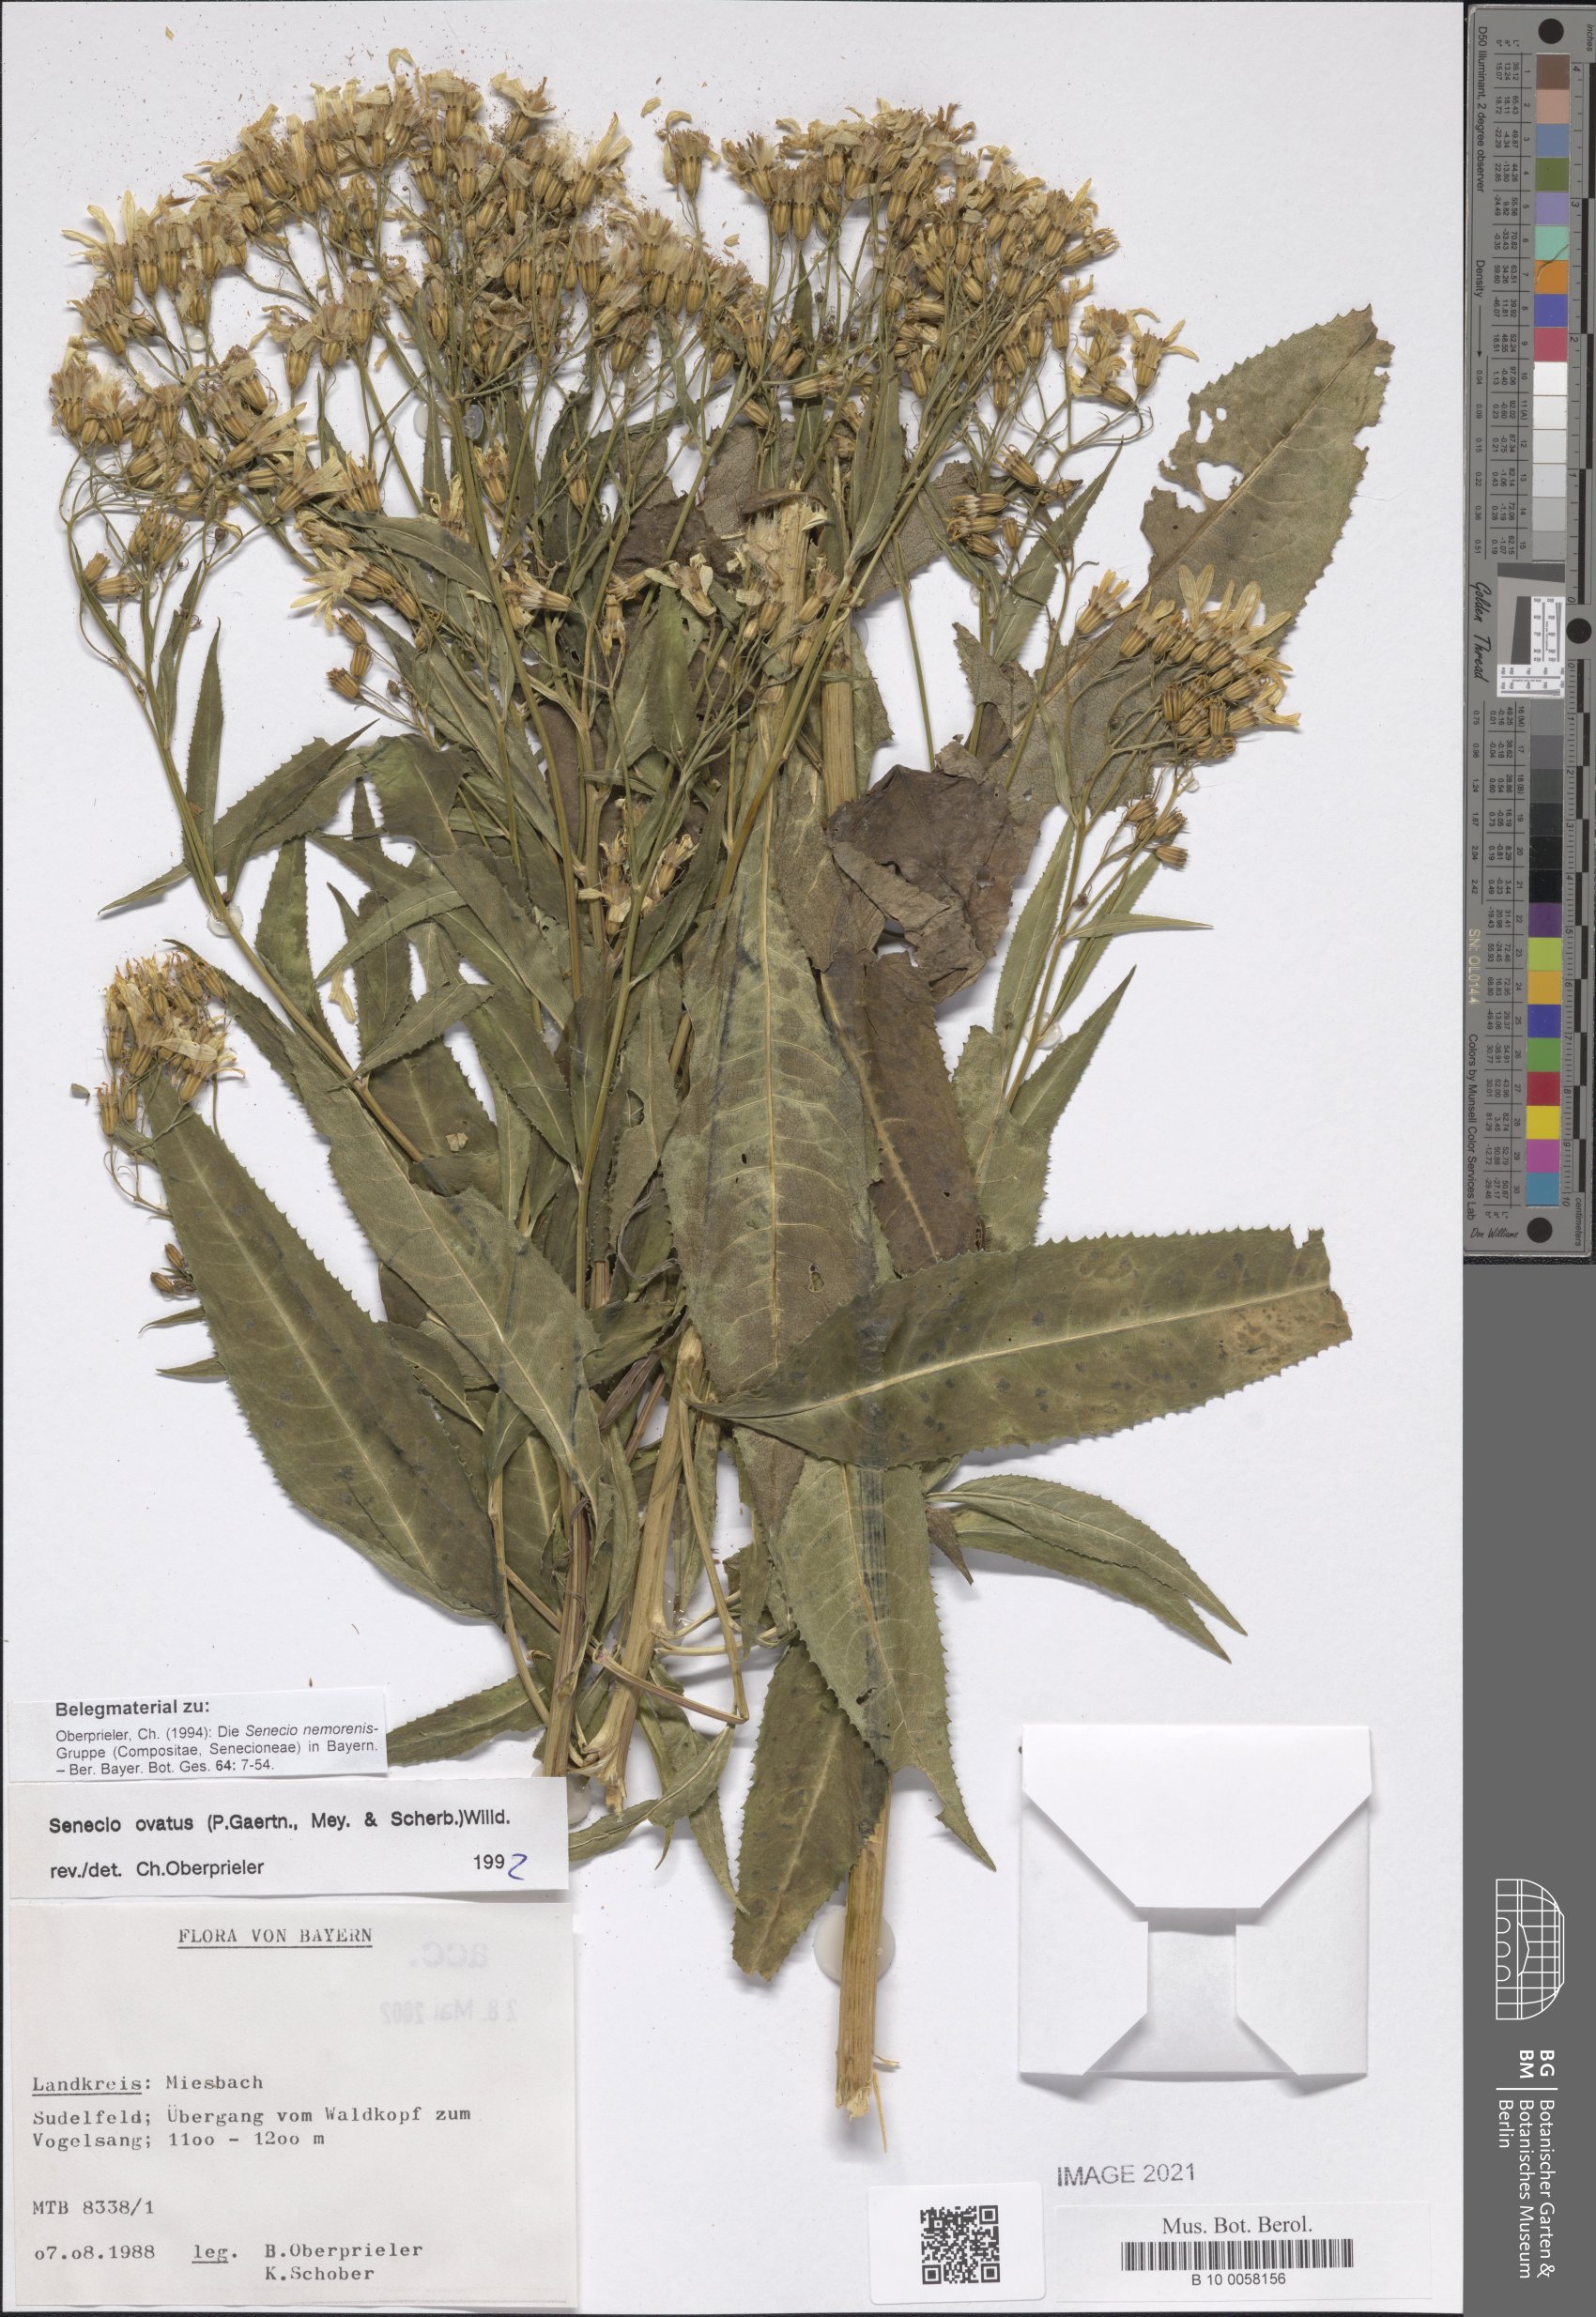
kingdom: Plantae
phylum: Tracheophyta
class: Magnoliopsida
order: Asterales
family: Asteraceae
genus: Senecio
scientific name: Senecio ovatus
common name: Wood ragwort
